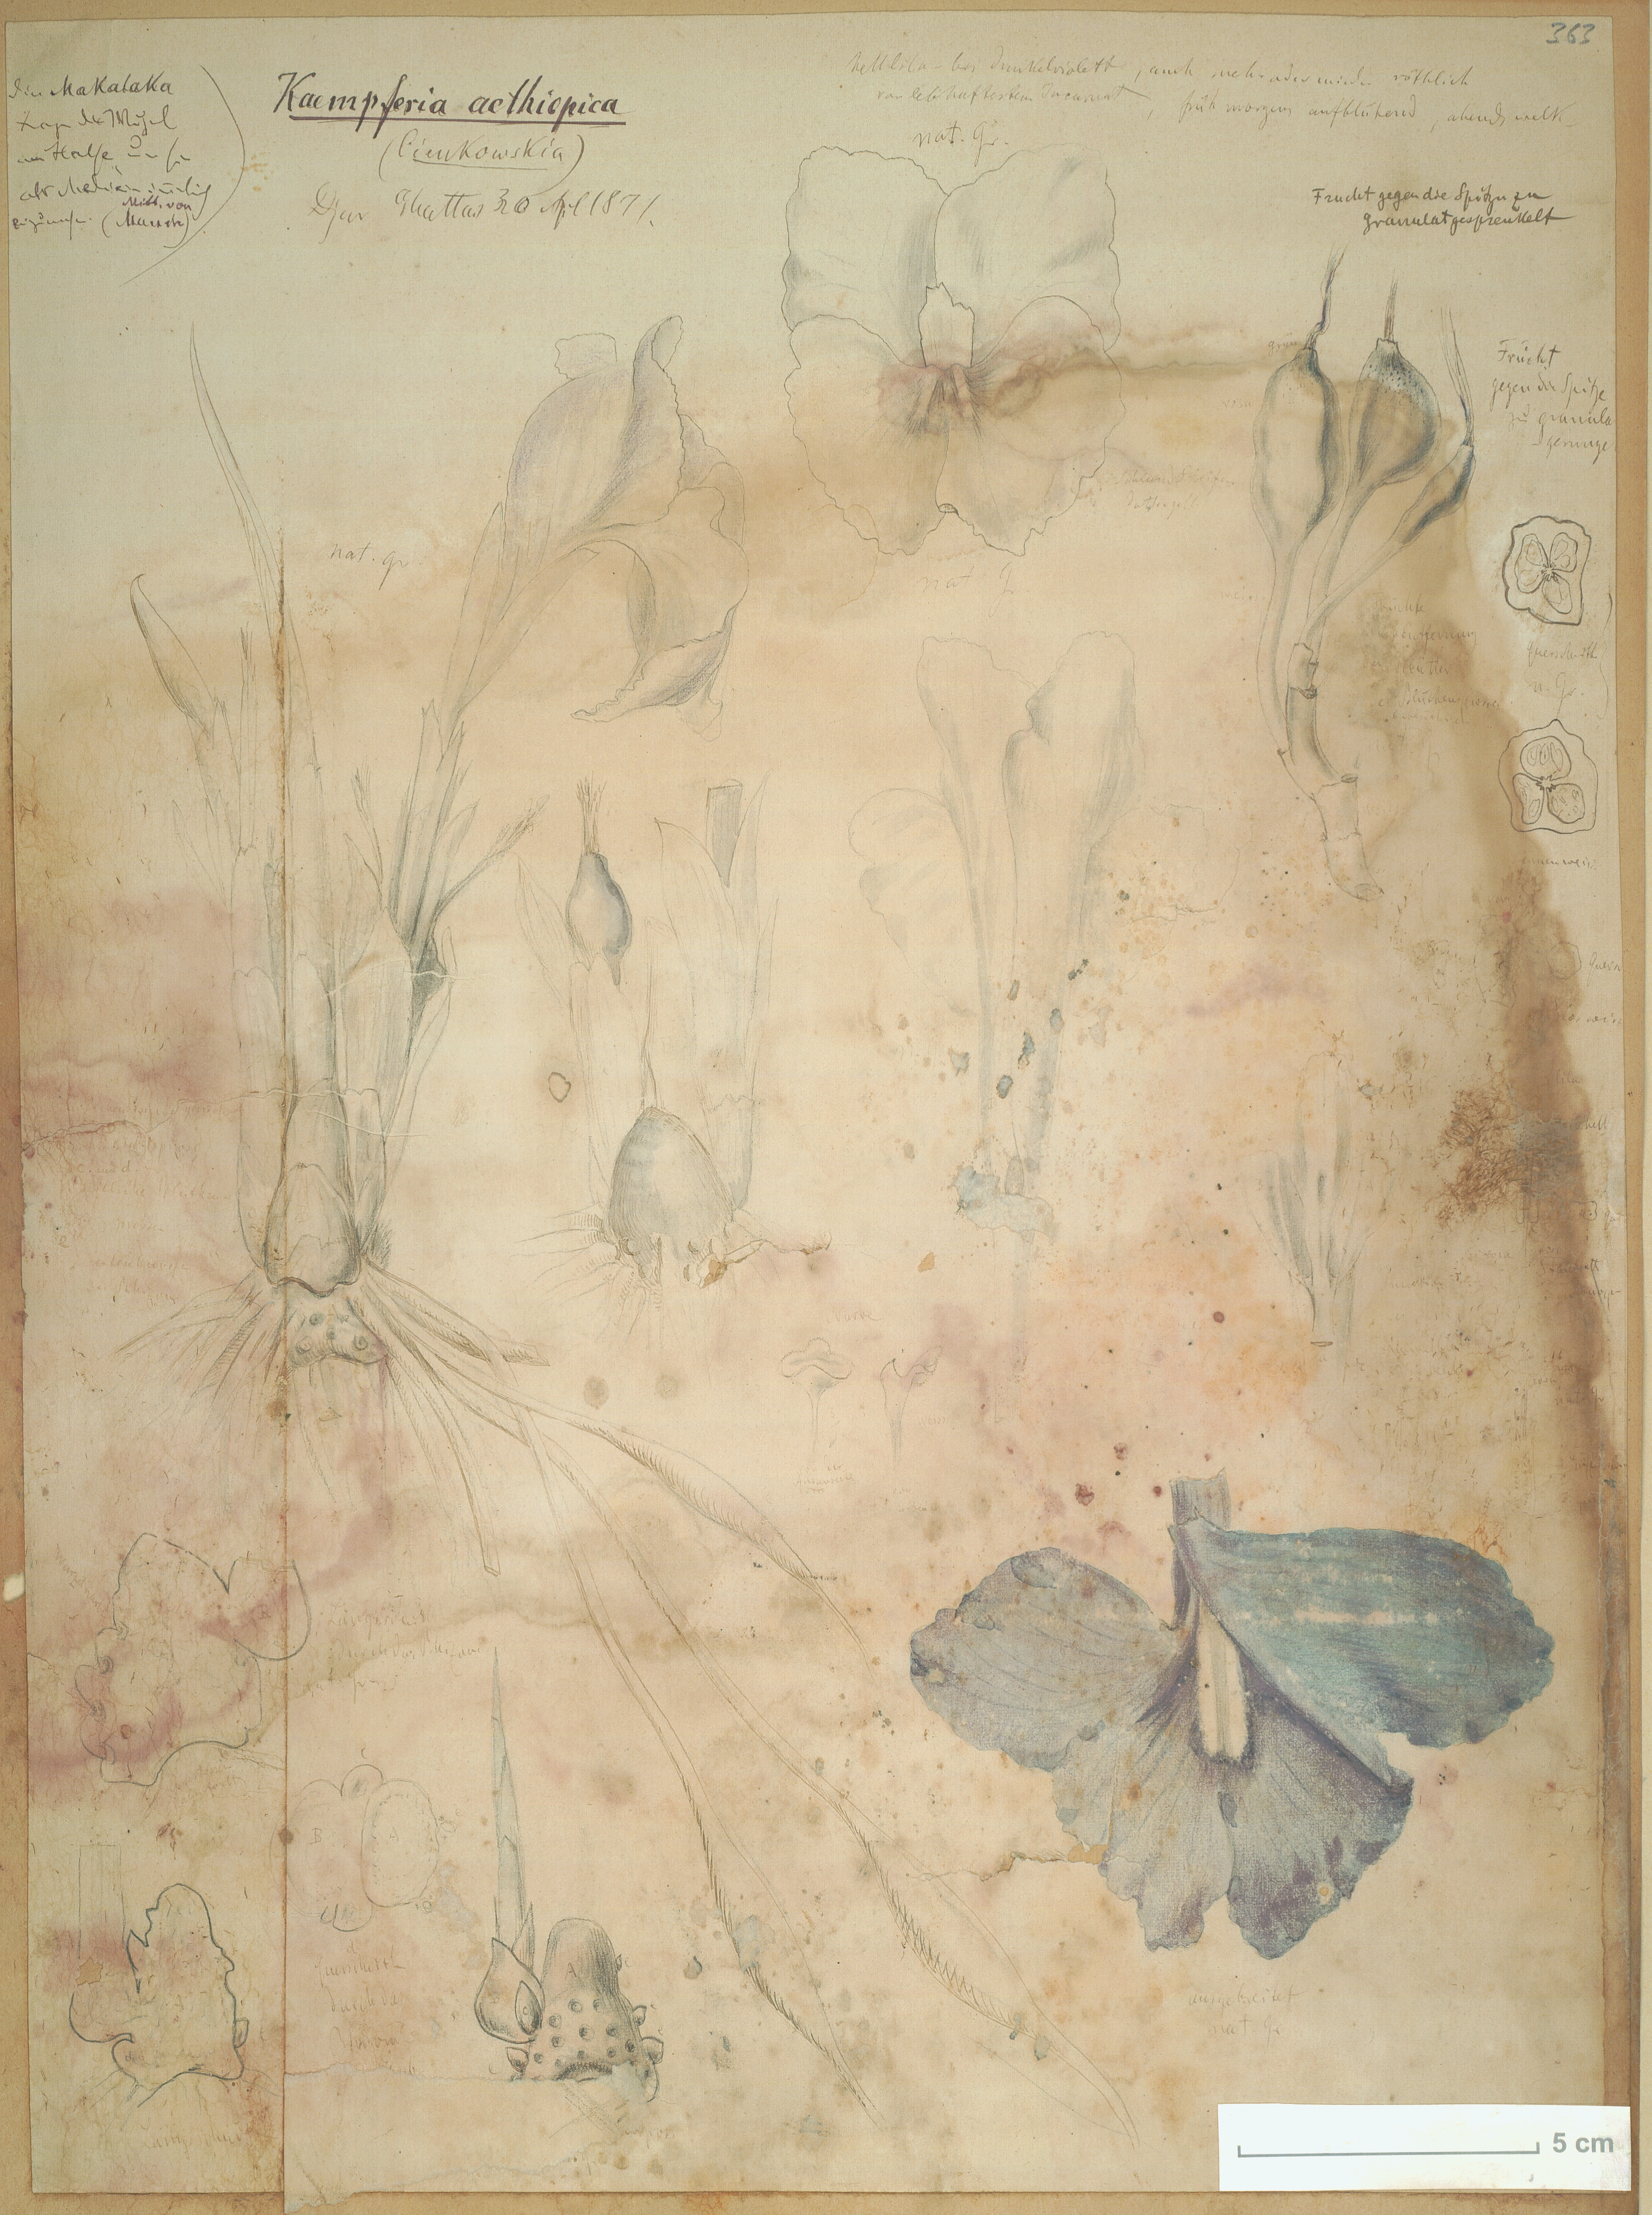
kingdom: Plantae
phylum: Tracheophyta
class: Liliopsida
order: Zingiberales
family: Zingiberaceae
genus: Siphonochilus
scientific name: Siphonochilus aethiopicus
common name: African-ginger
